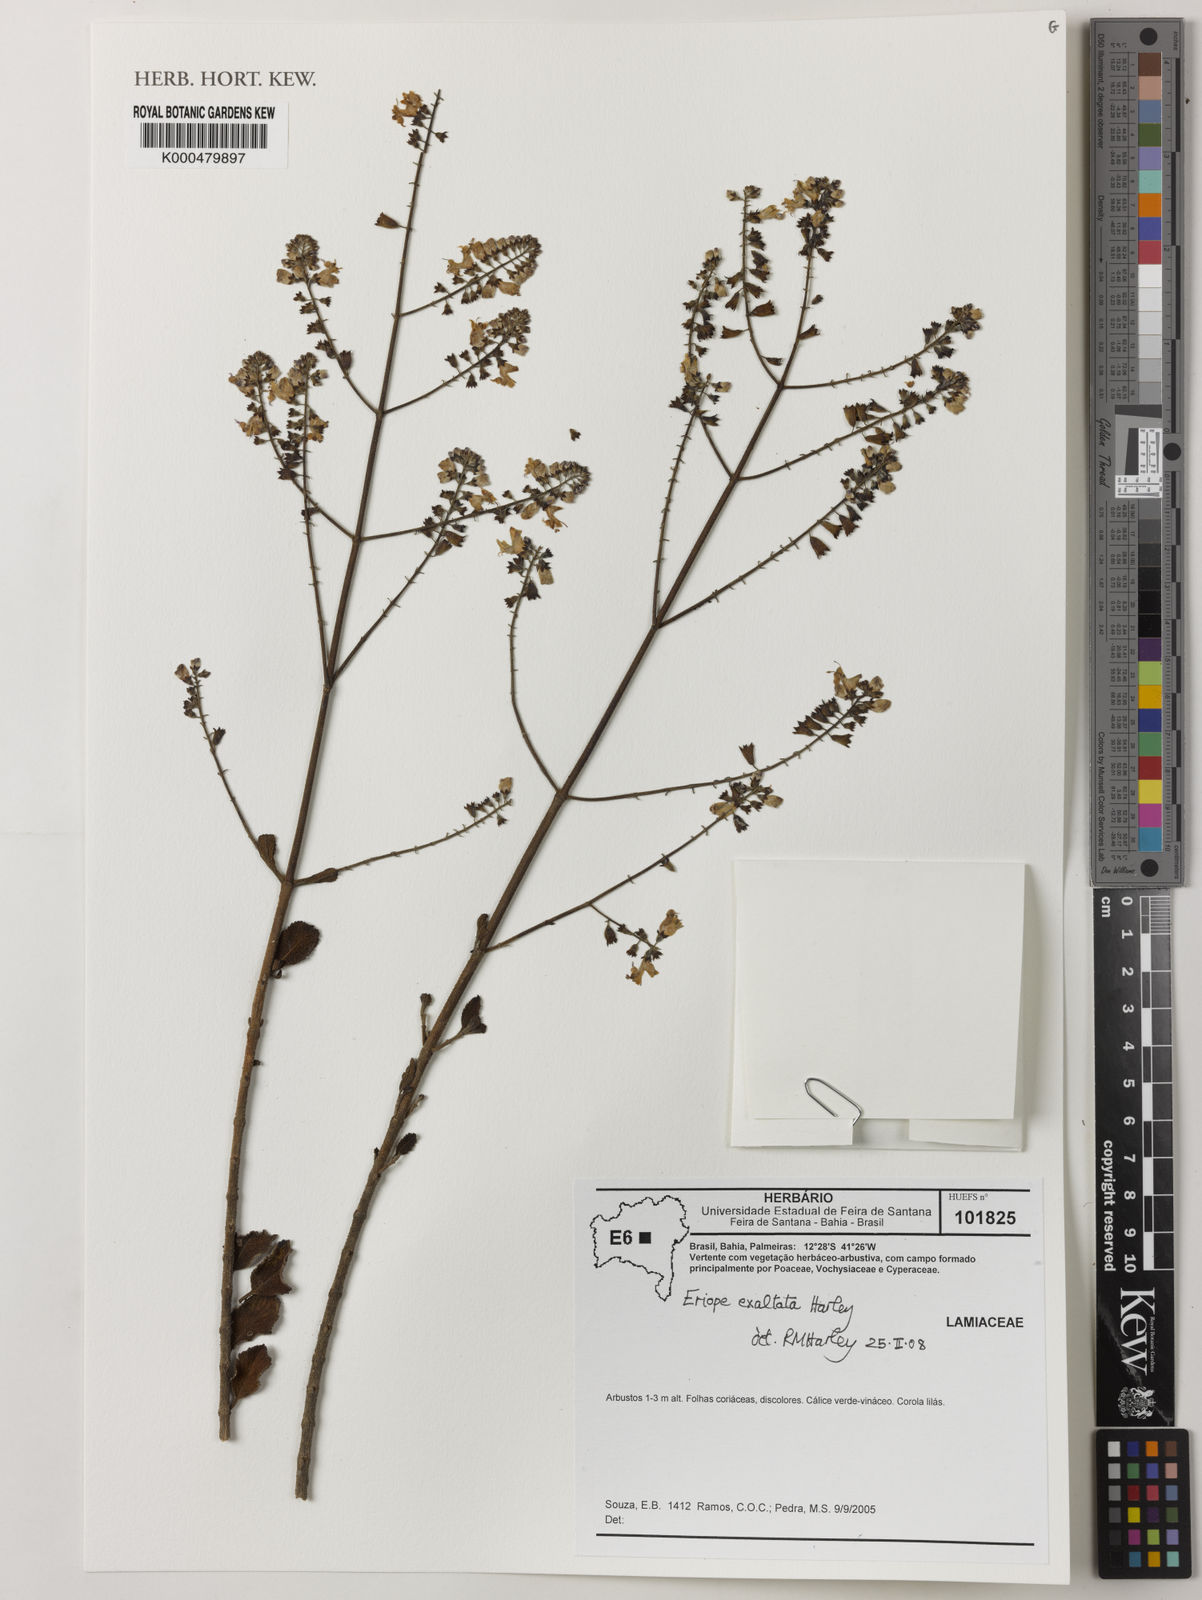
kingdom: Plantae
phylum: Tracheophyta
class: Magnoliopsida
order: Lamiales
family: Lamiaceae
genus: Eriope
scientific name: Eriope exaltata
